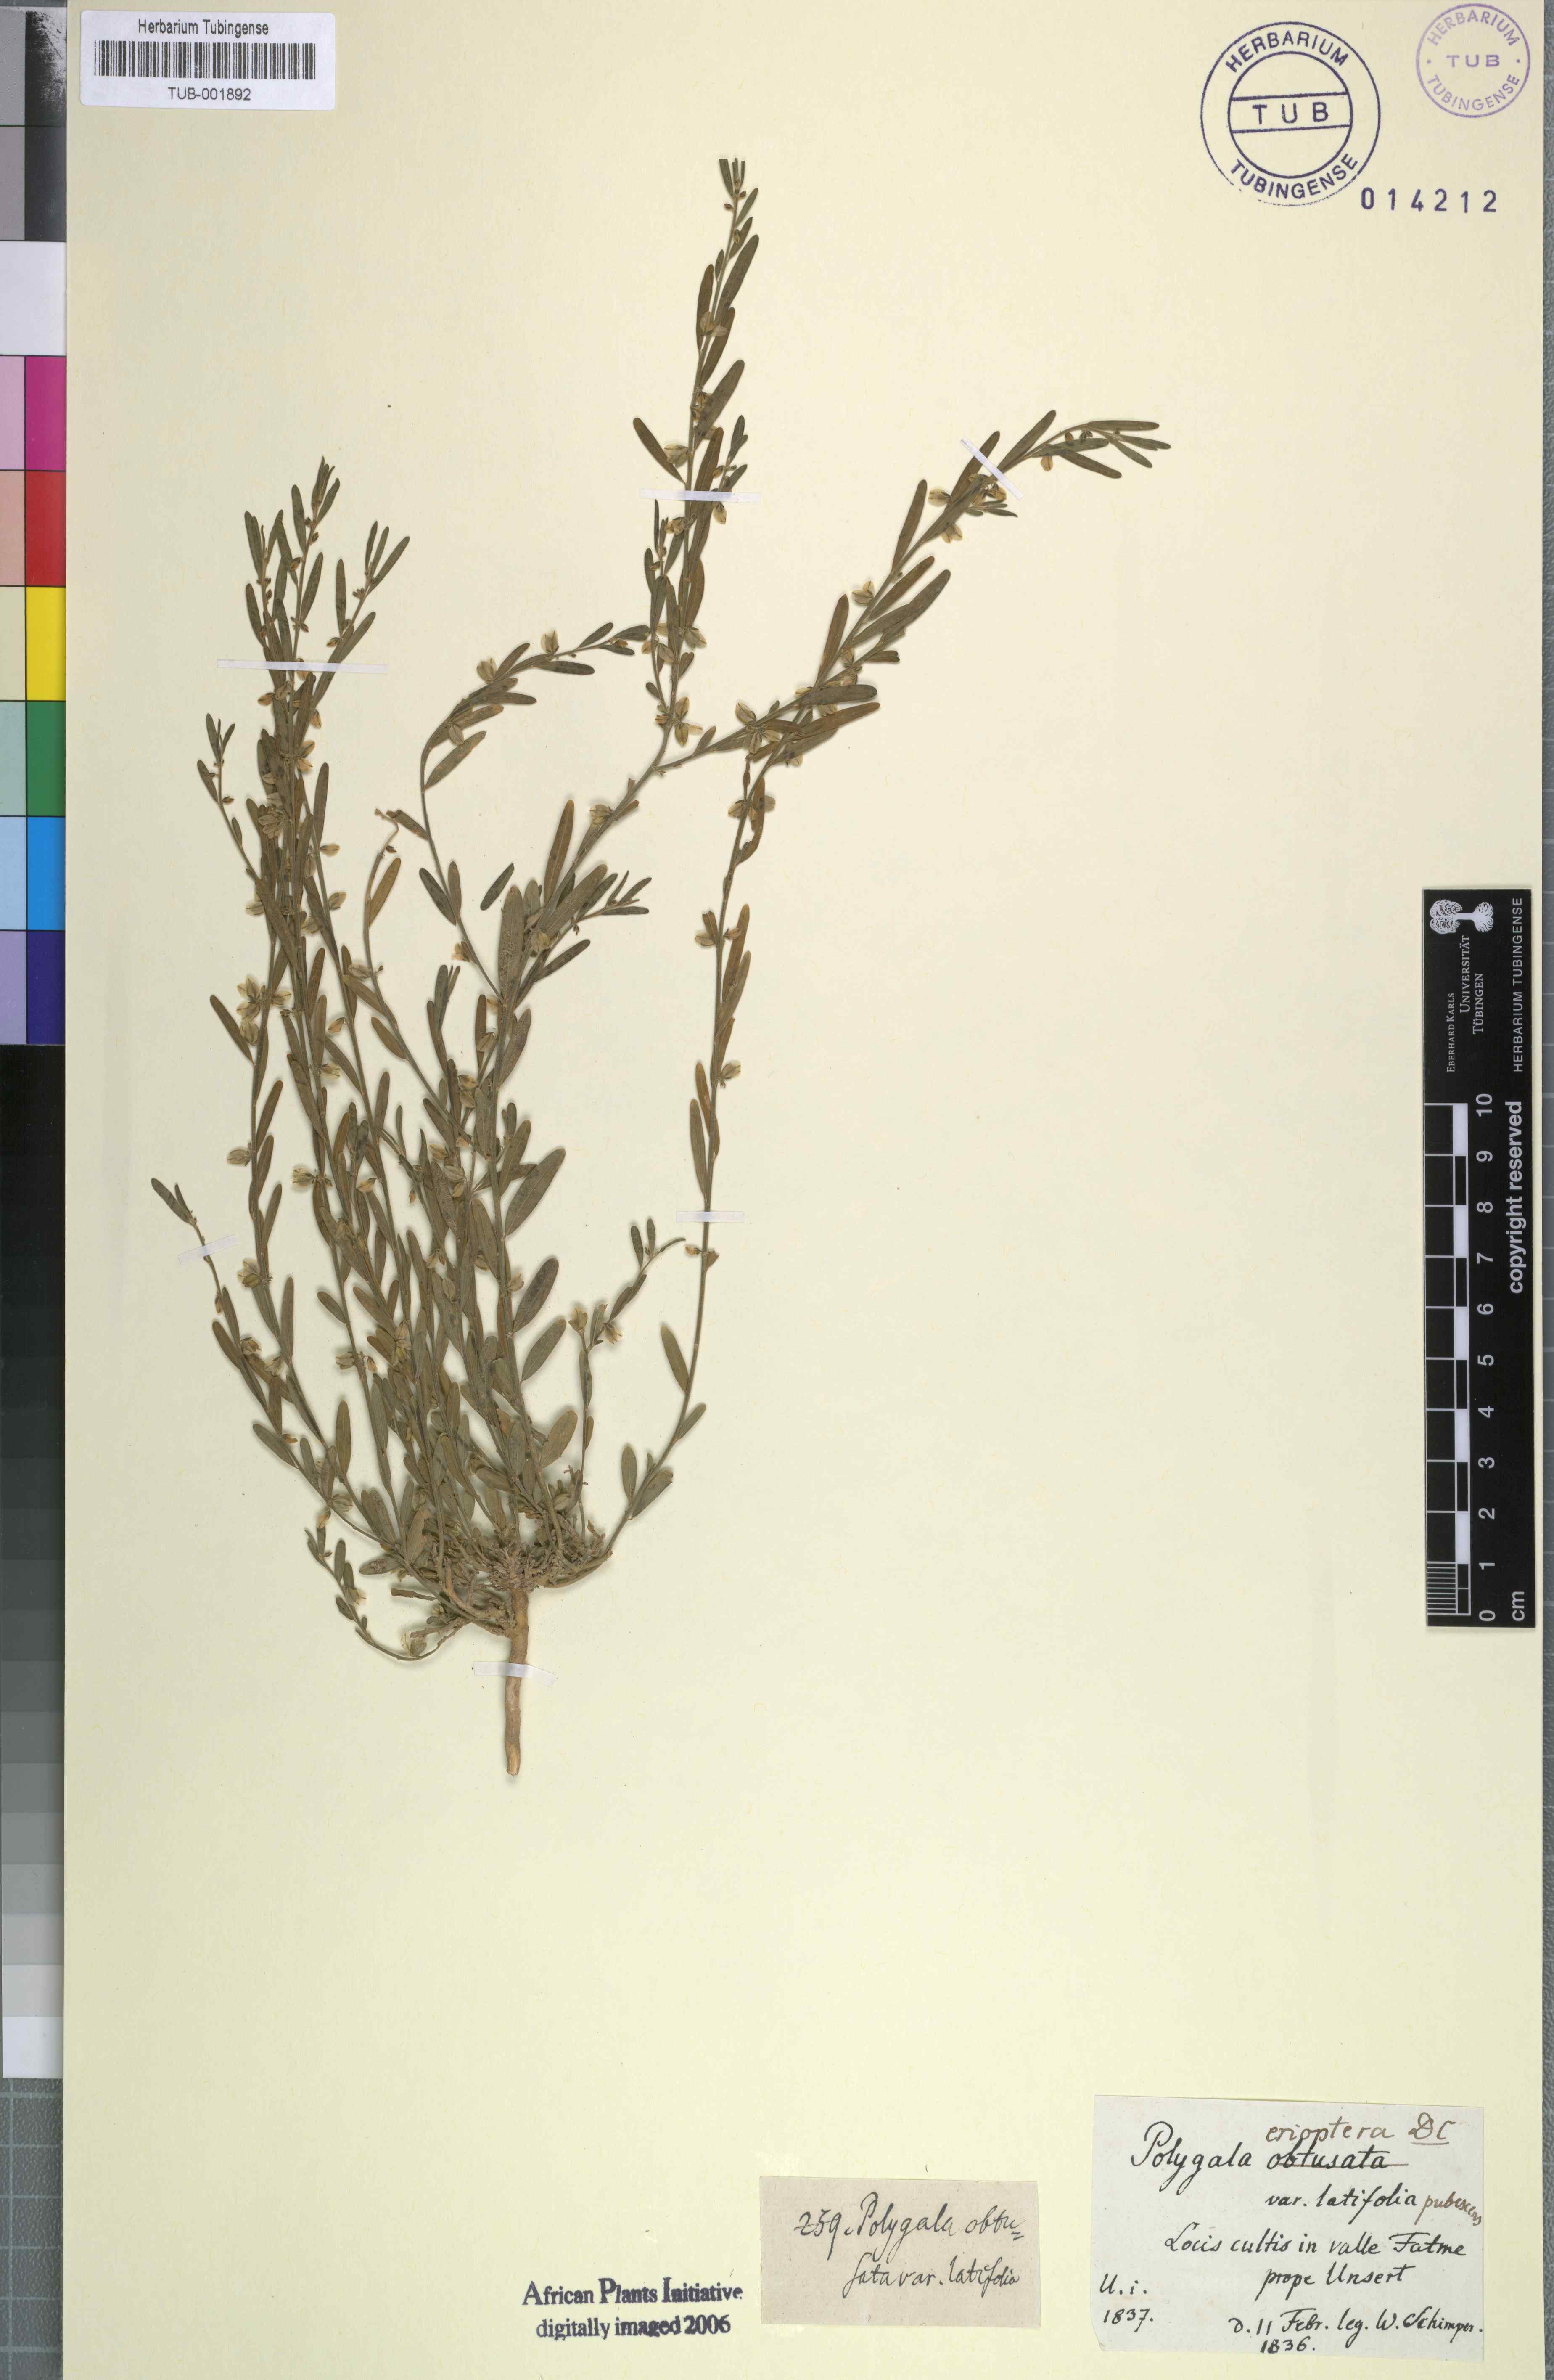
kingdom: Plantae
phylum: Tracheophyta
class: Magnoliopsida
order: Fabales
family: Polygalaceae
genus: Polygala
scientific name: Polygala erioptera
